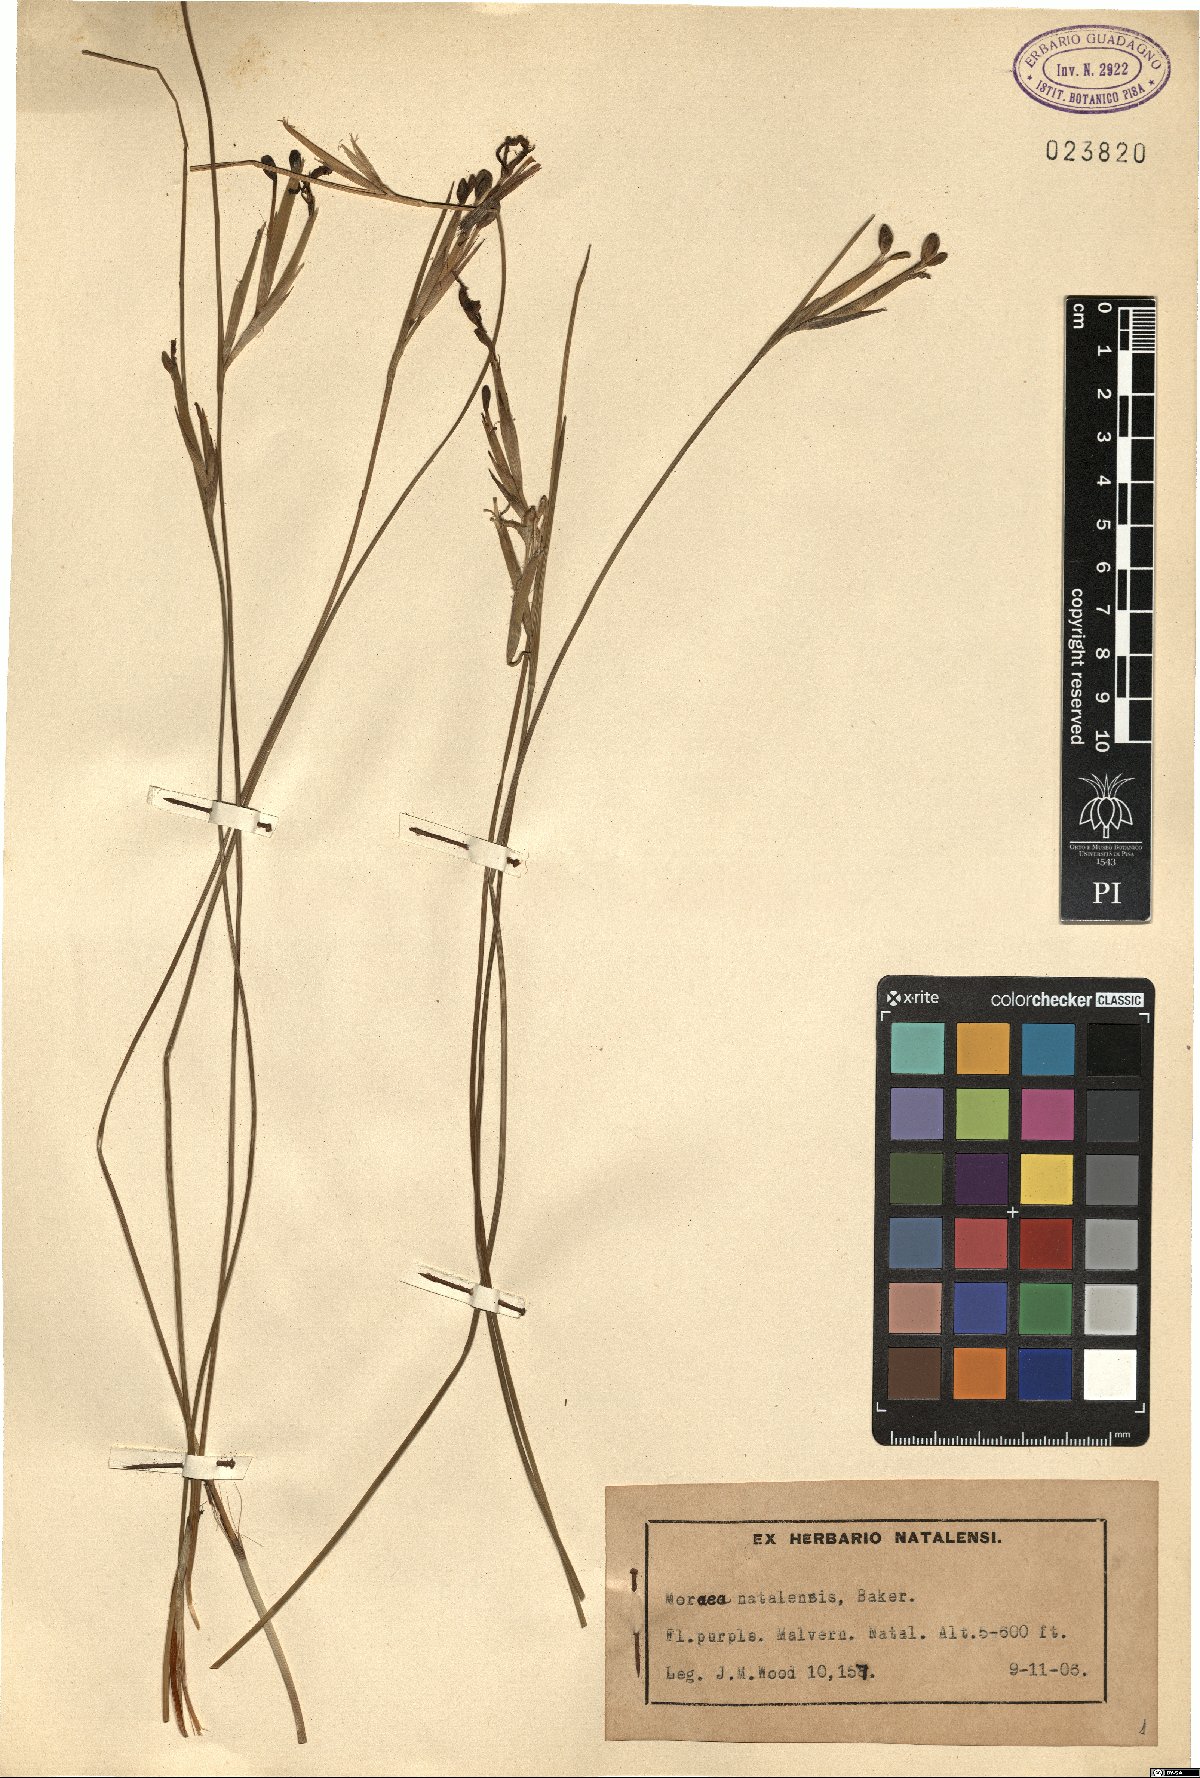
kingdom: Plantae
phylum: Tracheophyta
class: Liliopsida
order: Asparagales
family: Iridaceae
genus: Moraea
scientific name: Moraea natalensis
